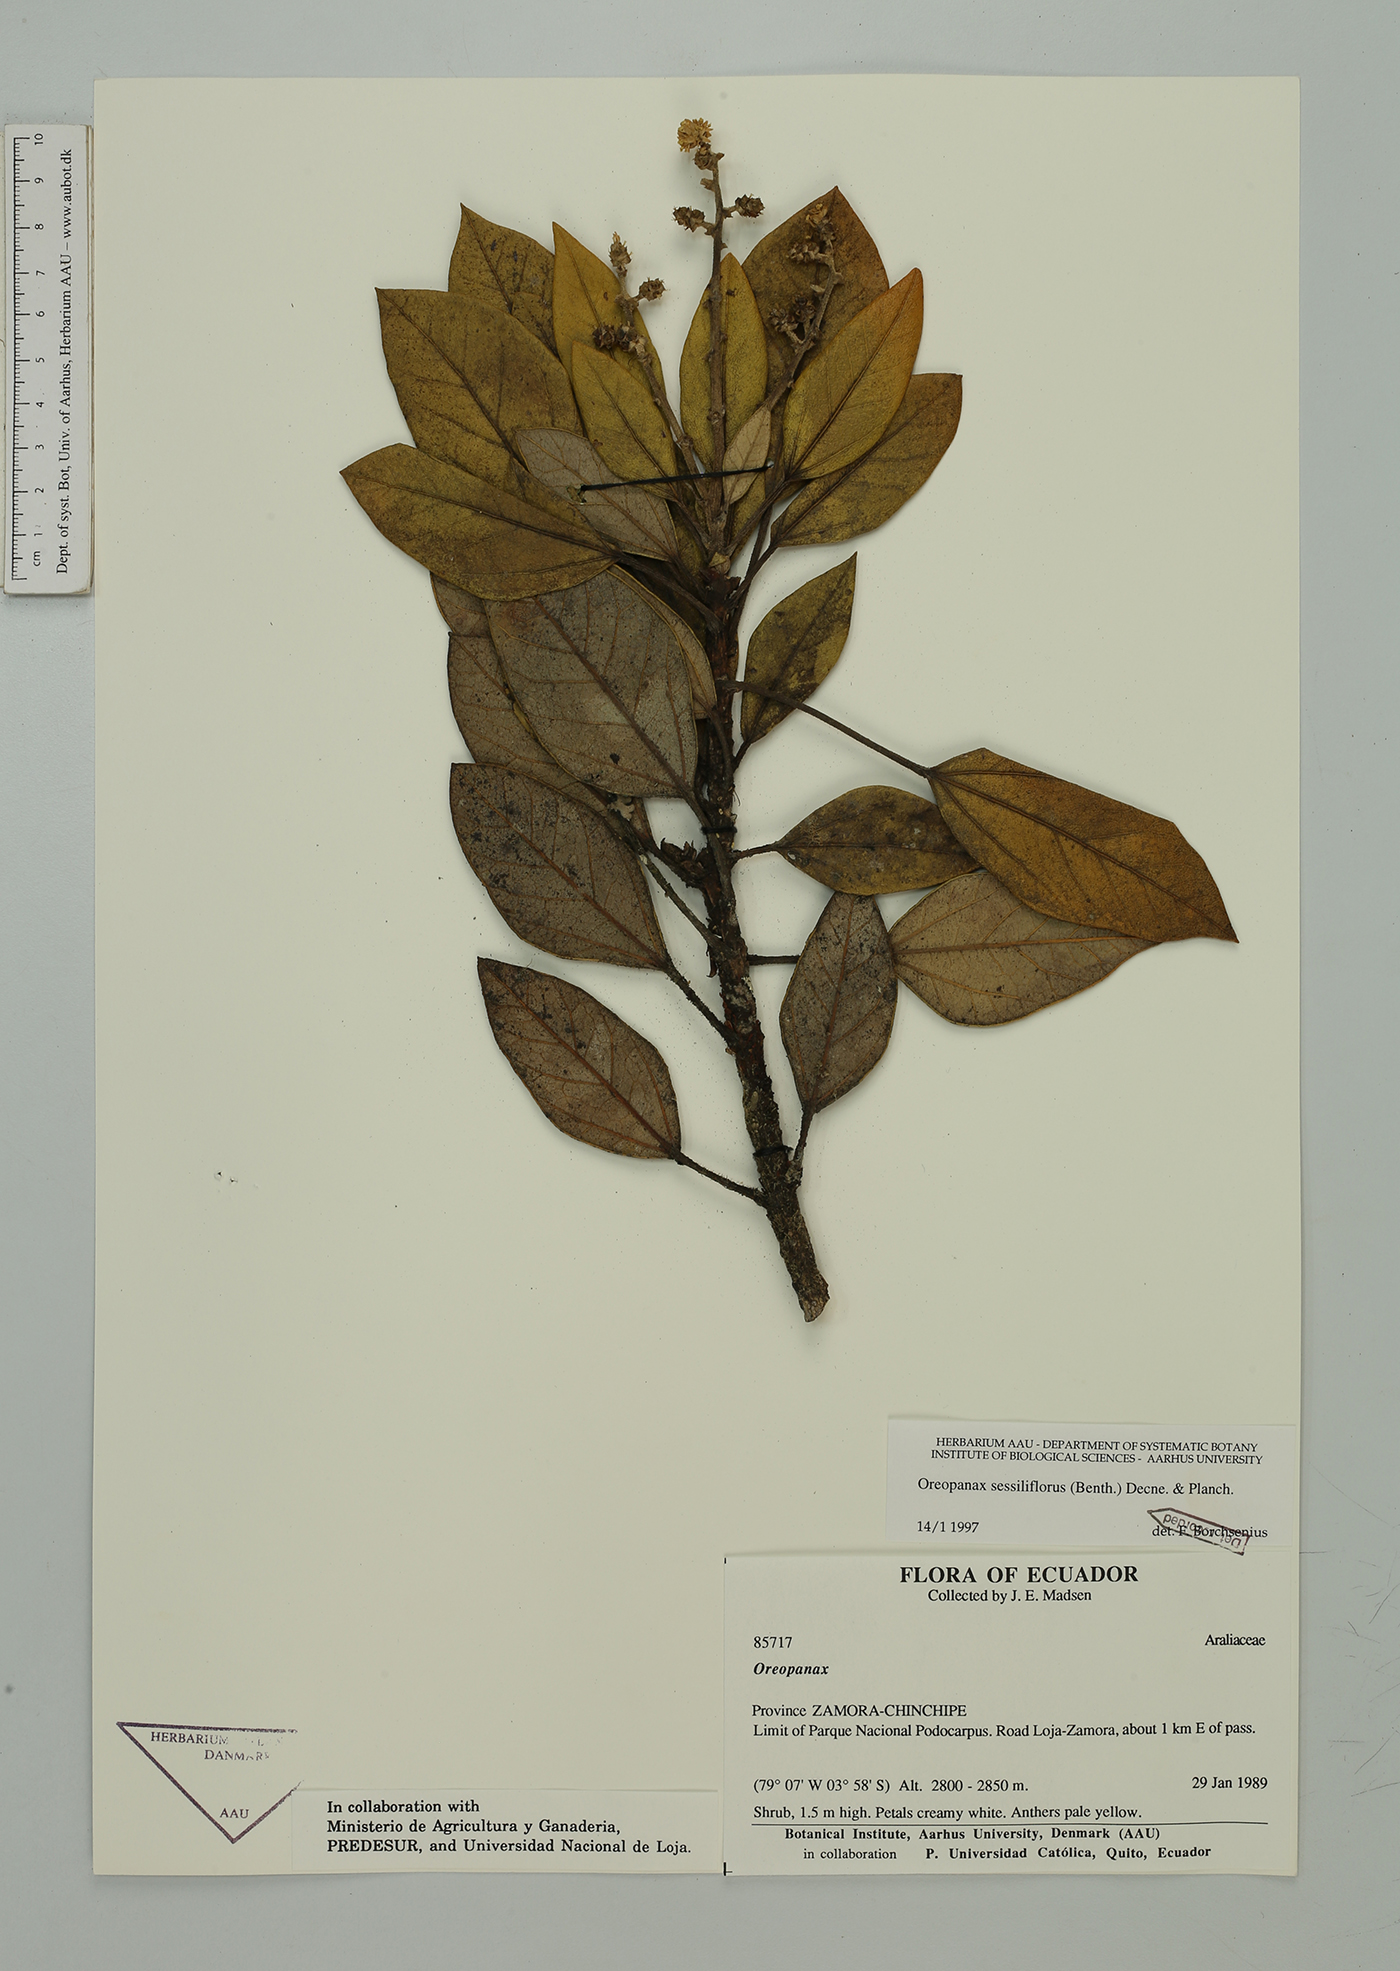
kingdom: Plantae
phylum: Tracheophyta
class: Magnoliopsida
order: Apiales
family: Araliaceae
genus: Oreopanax
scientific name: Oreopanax sessiliflorus
